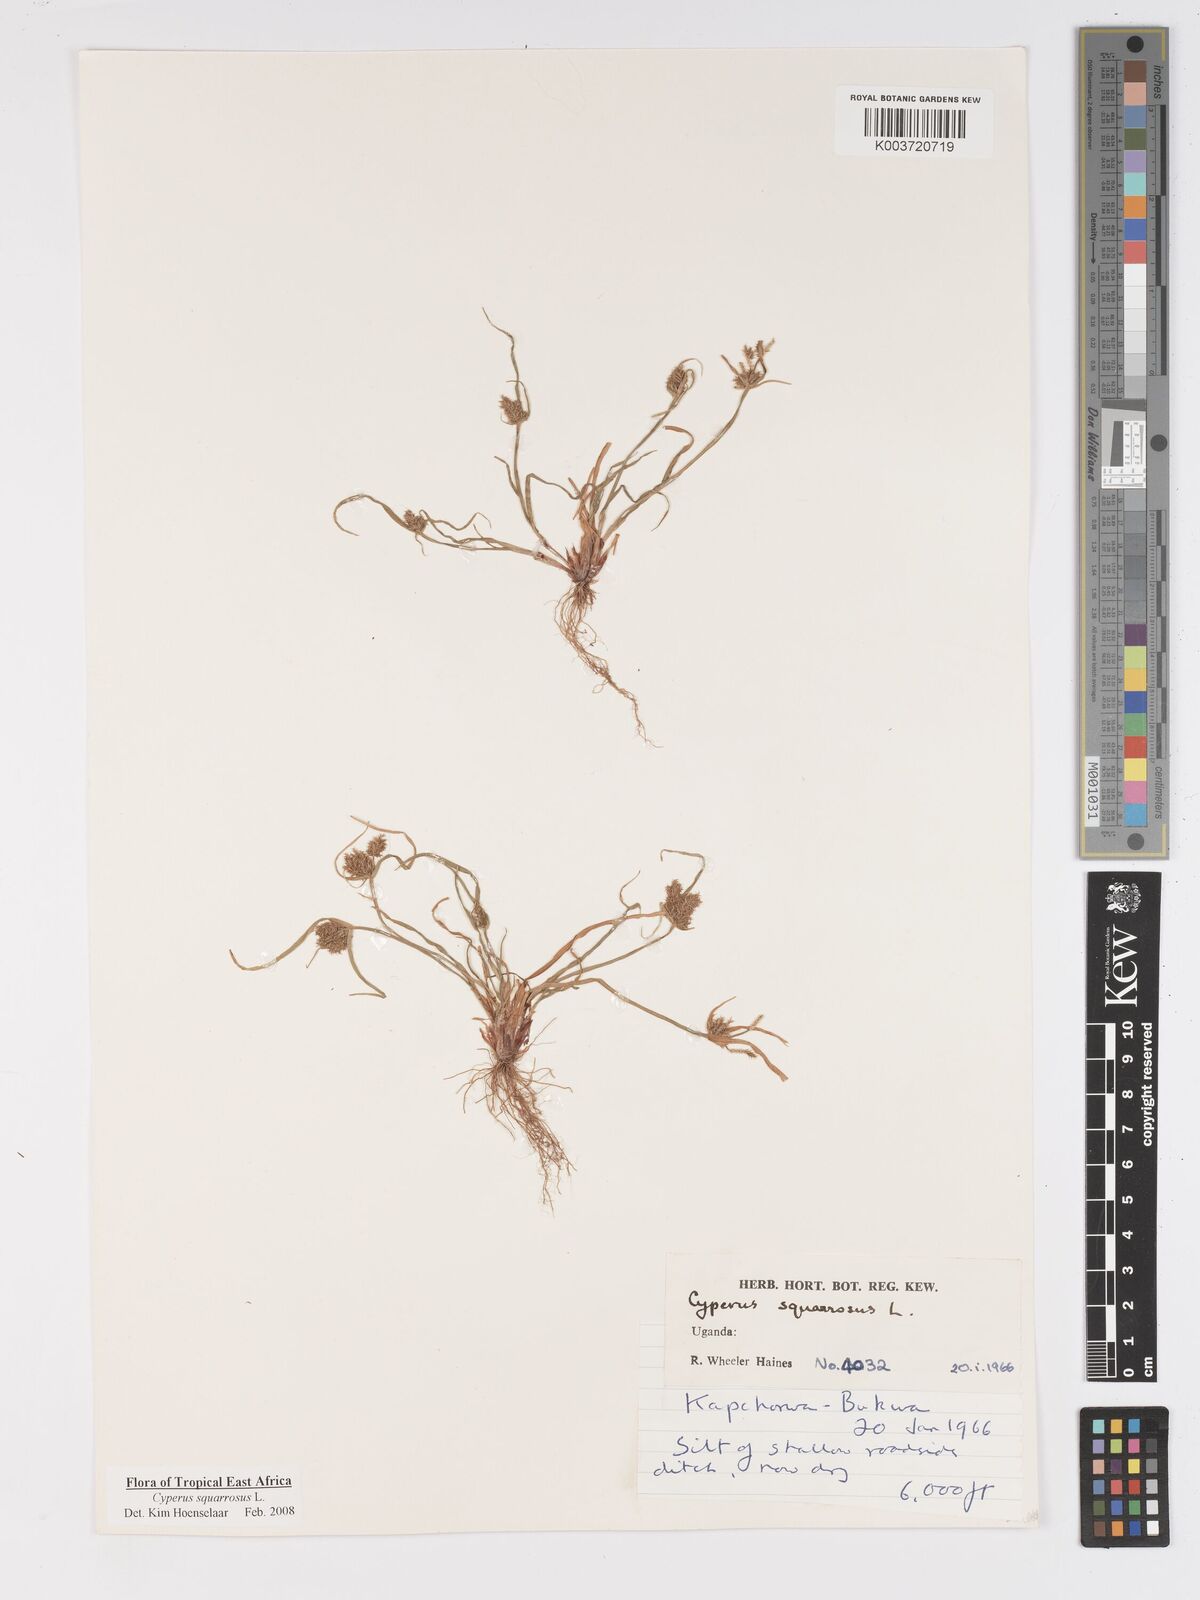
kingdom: Plantae
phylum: Tracheophyta
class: Liliopsida
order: Poales
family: Cyperaceae
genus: Cyperus
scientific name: Cyperus squarrosus
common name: Awned cyperus
